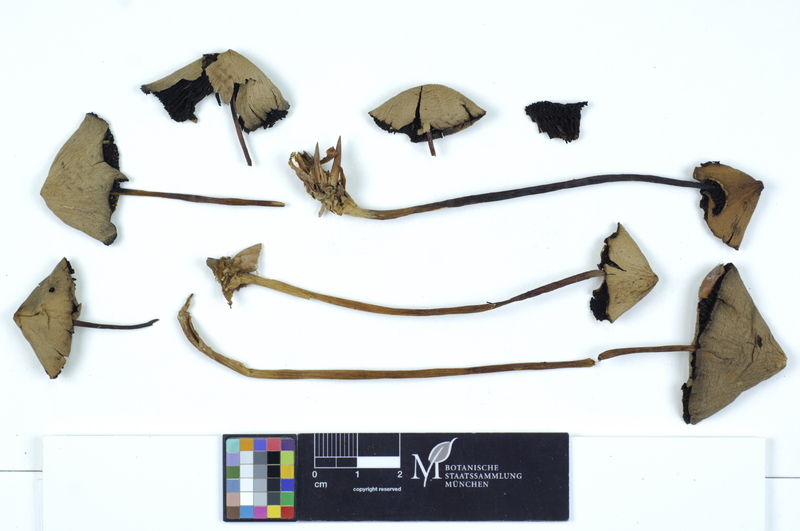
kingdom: Fungi
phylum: Basidiomycota
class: Agaricomycetes
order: Agaricales
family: Psathyrellaceae
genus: Psathyrella
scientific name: Psathyrella conopilus
